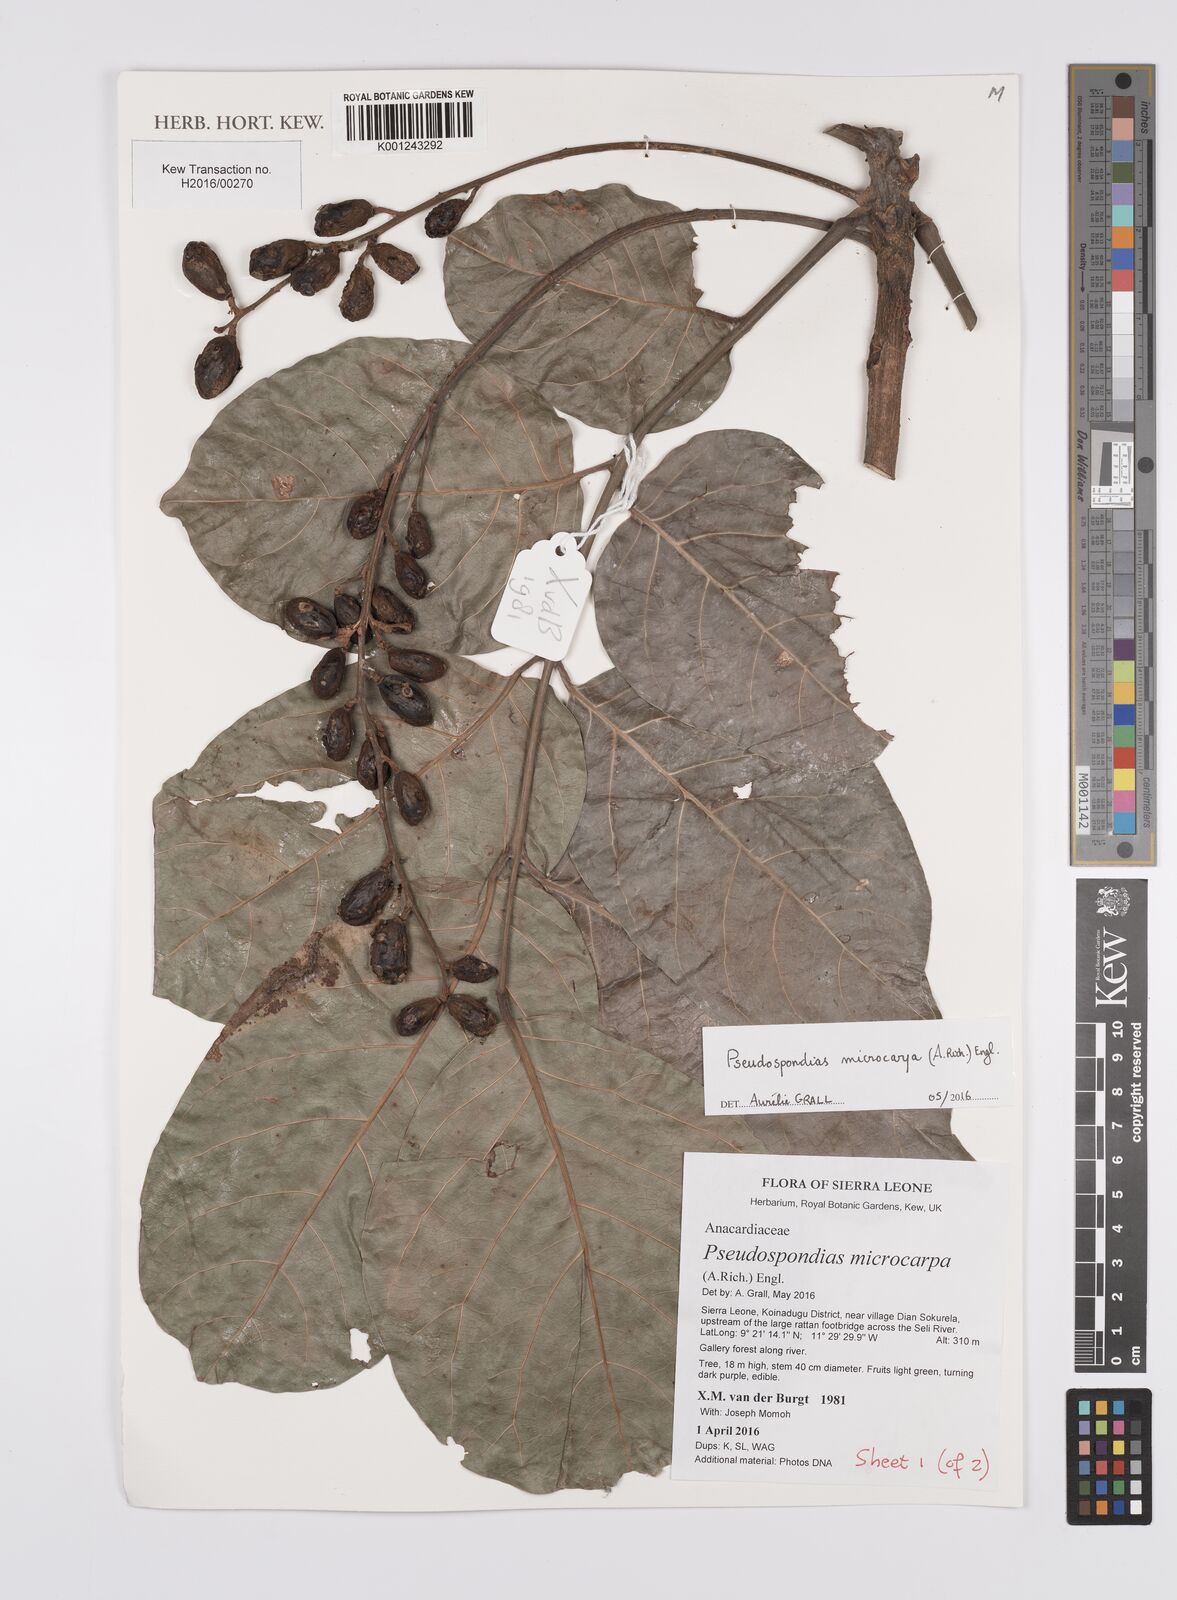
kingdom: Plantae
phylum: Tracheophyta
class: Magnoliopsida
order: Sapindales
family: Anacardiaceae
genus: Pseudospondias
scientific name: Pseudospondias microcarpa
